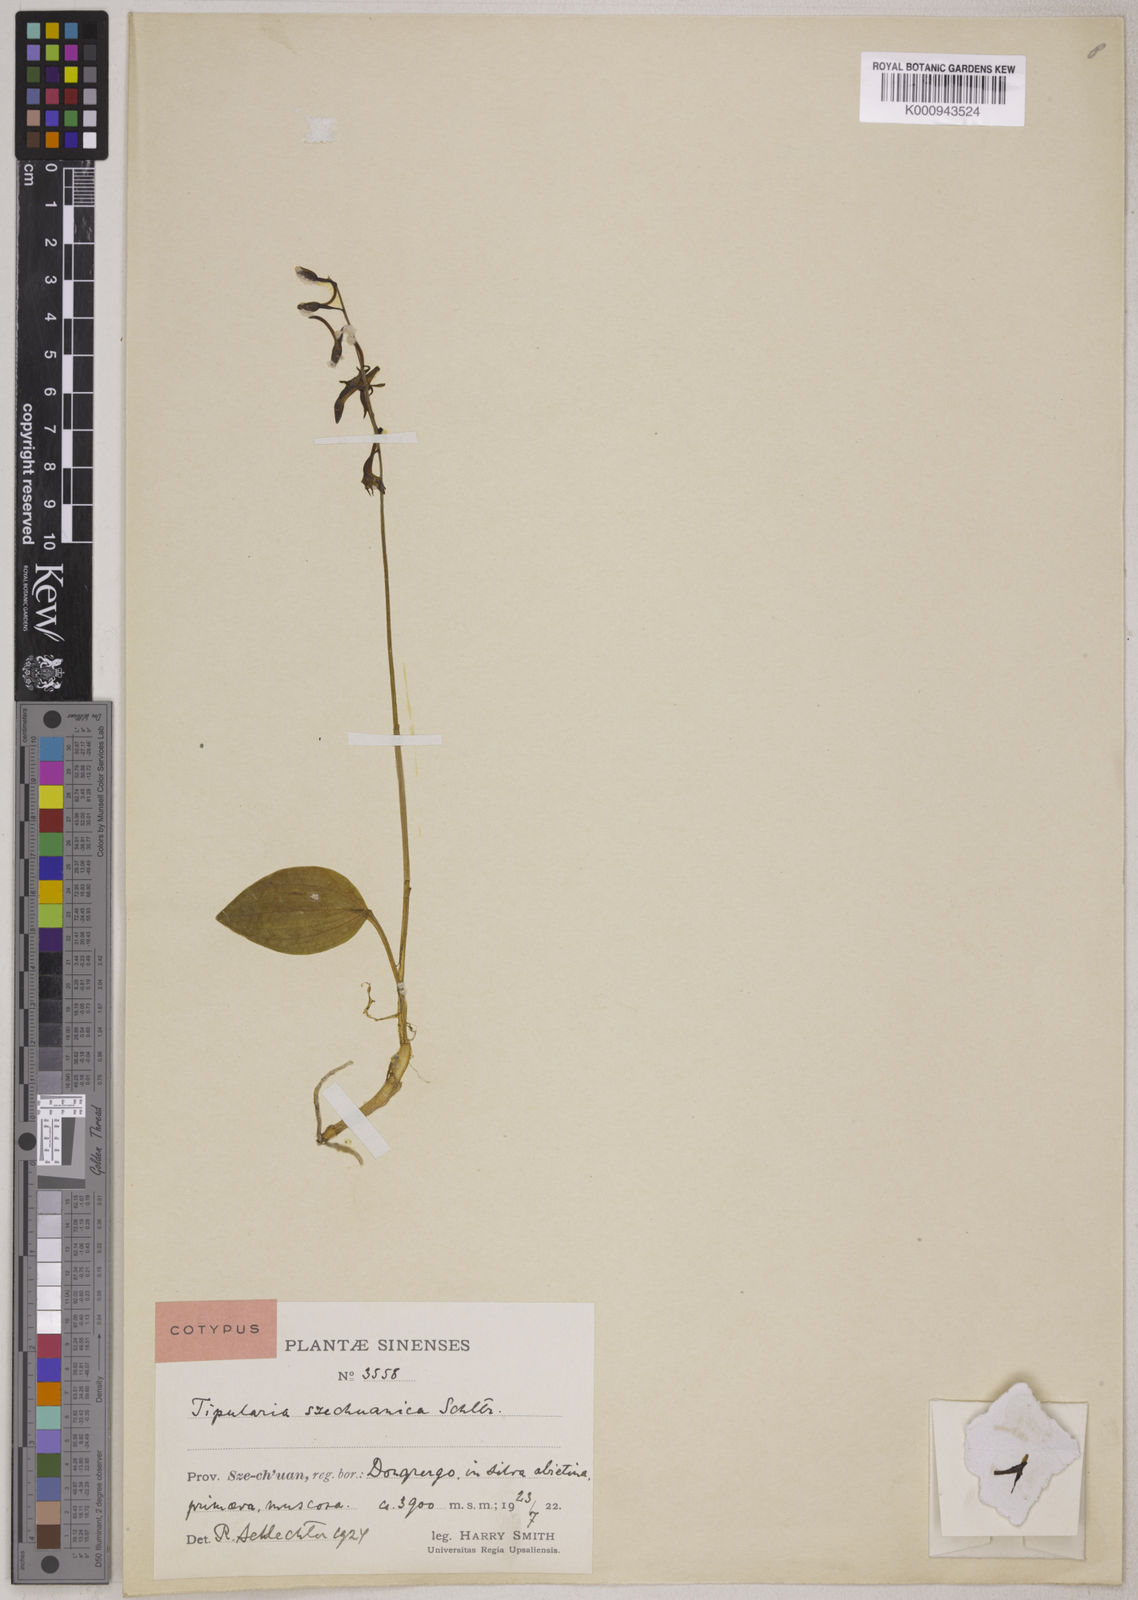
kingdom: Plantae
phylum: Tracheophyta
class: Liliopsida
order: Asparagales
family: Orchidaceae
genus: Tipularia
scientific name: Tipularia szechuanica
